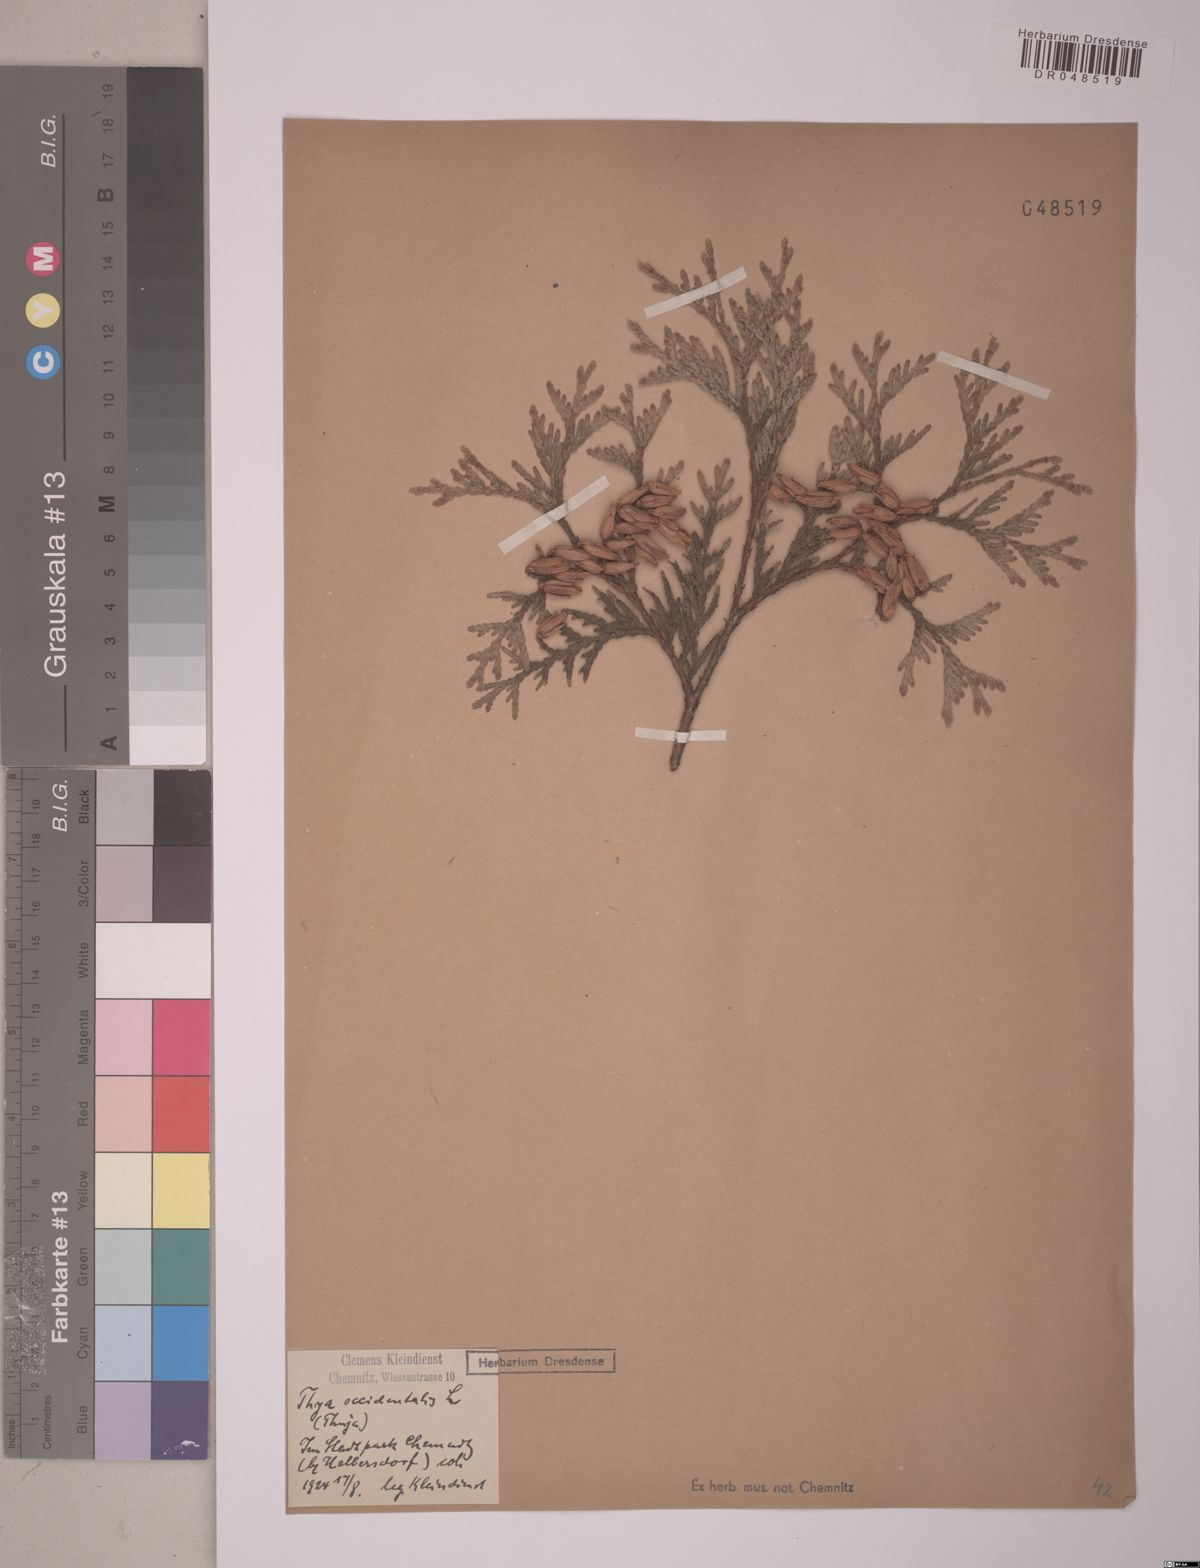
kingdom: Plantae
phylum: Tracheophyta
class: Pinopsida
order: Pinales
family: Cupressaceae
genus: Thuja
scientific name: Thuja occidentalis
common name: Northern white-cedar
